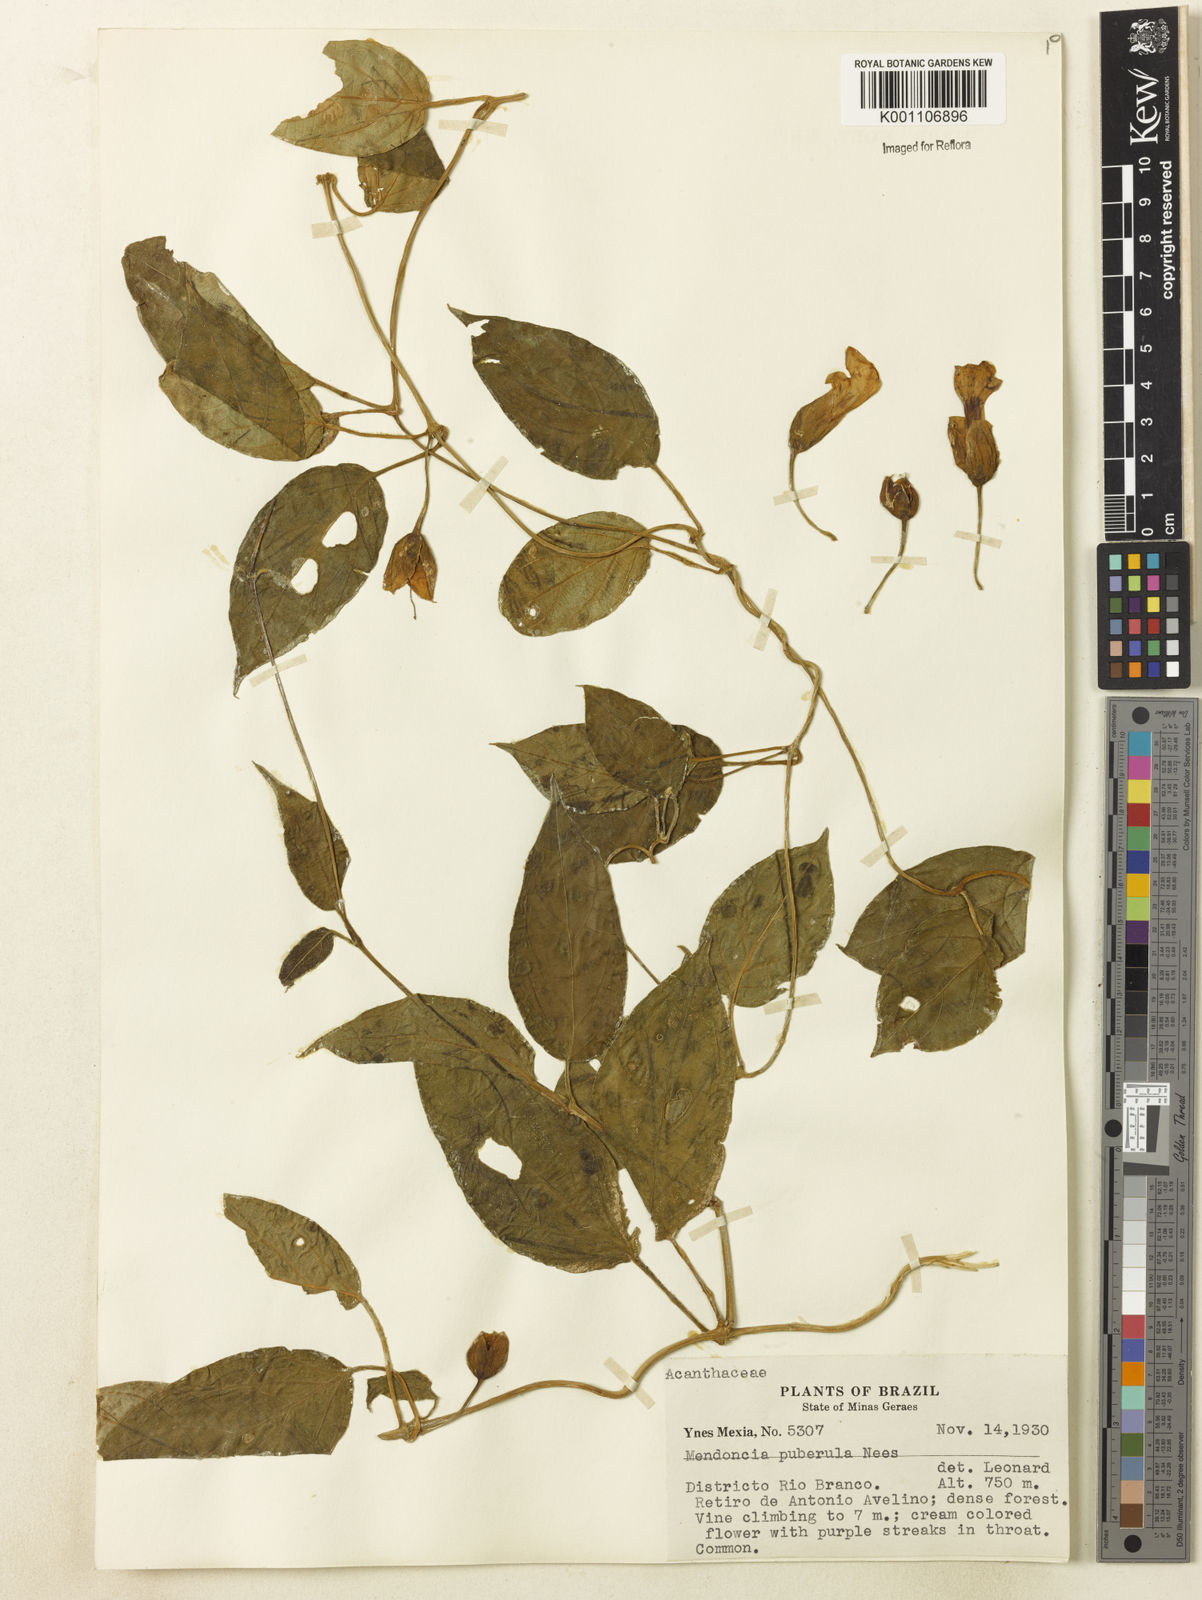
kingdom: Plantae
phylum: Tracheophyta
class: Magnoliopsida
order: Lamiales
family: Acanthaceae
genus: Mendoncia
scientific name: Mendoncia puberula
